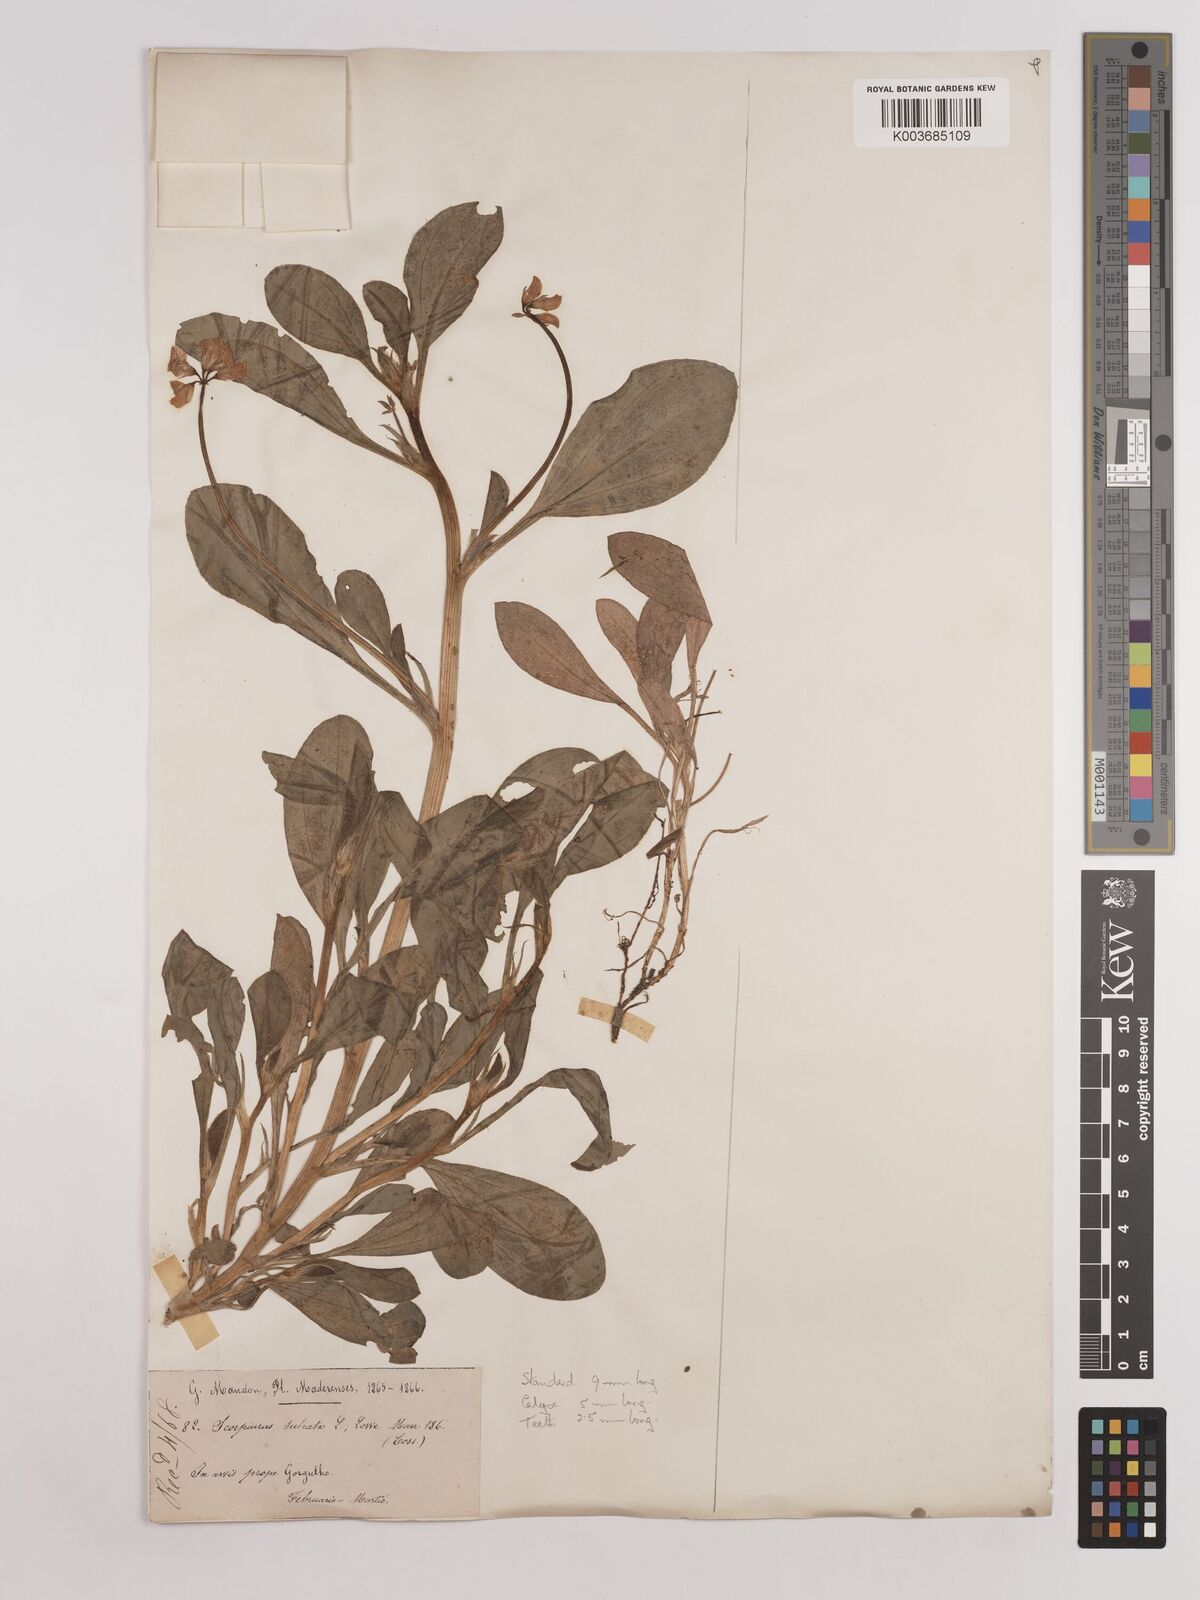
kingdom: Plantae
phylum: Tracheophyta
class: Magnoliopsida
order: Fabales
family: Fabaceae
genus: Scorpiurus
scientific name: Scorpiurus muricatus
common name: Caterpillar-plant
